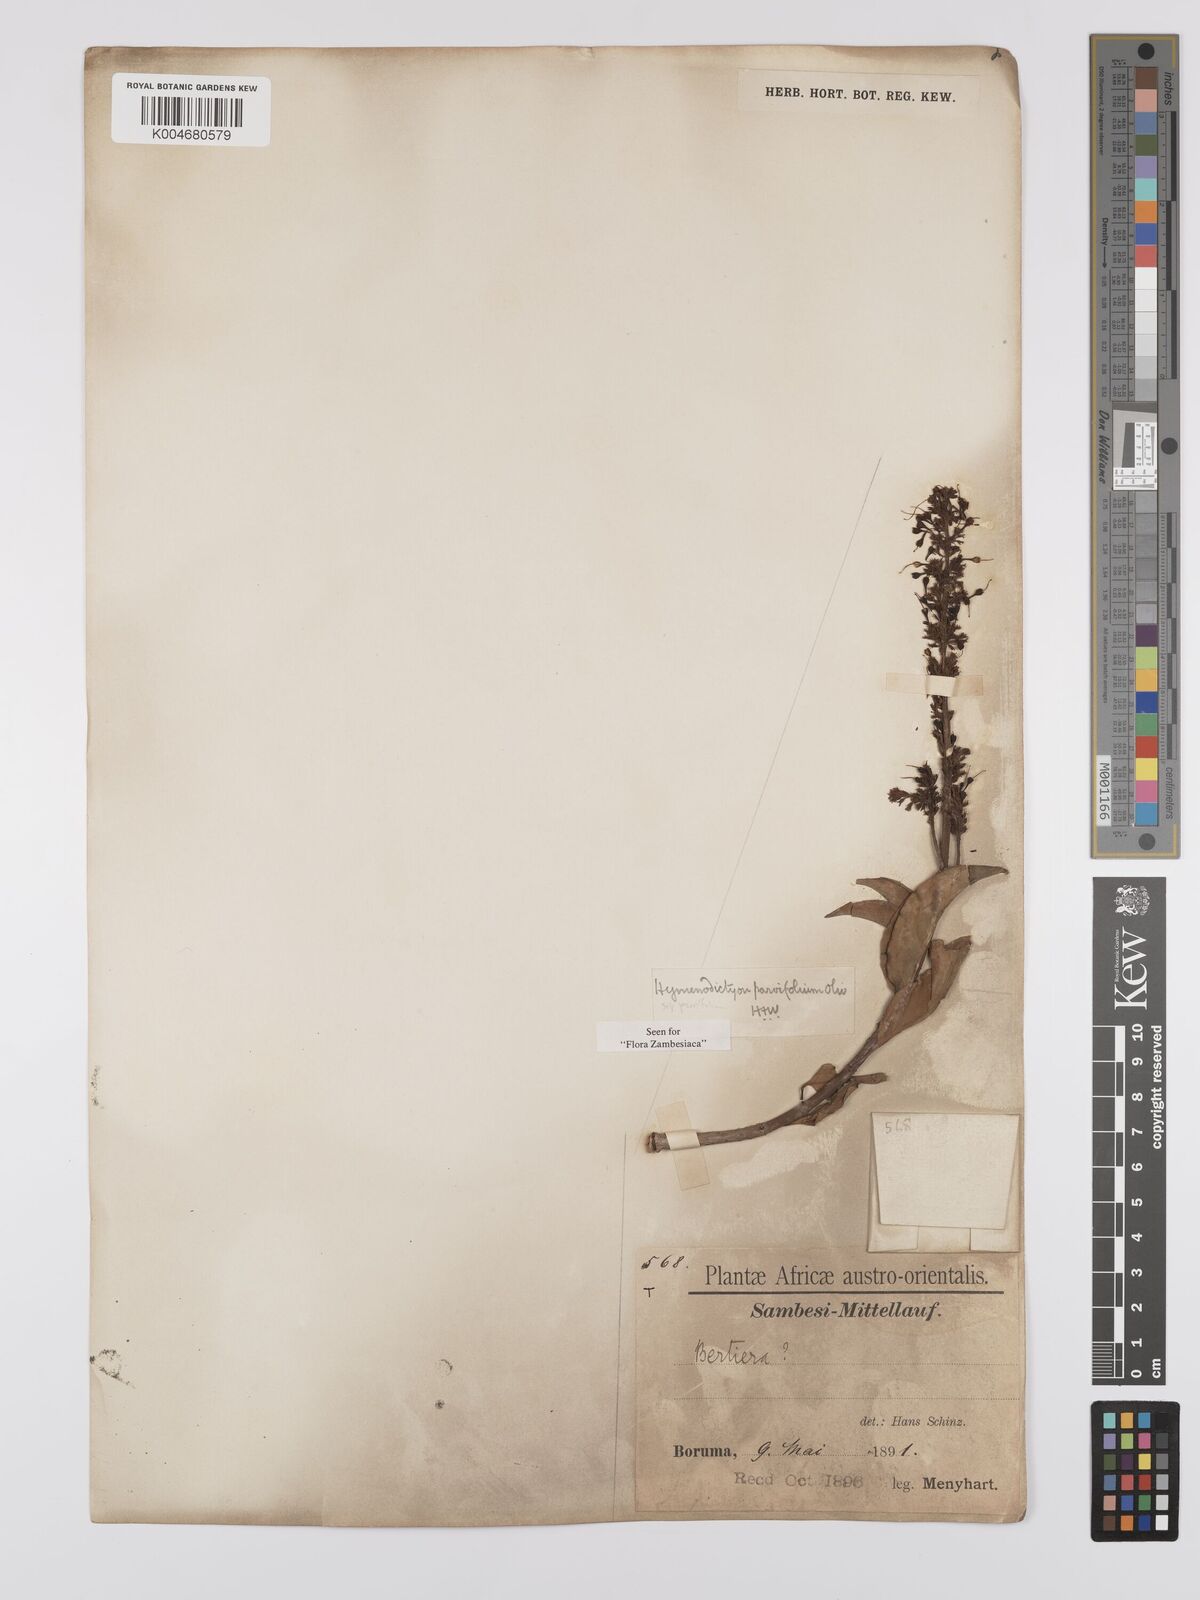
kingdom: Plantae
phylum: Tracheophyta
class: Magnoliopsida
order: Gentianales
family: Rubiaceae
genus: Hymenodictyon
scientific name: Hymenodictyon parvifolium
